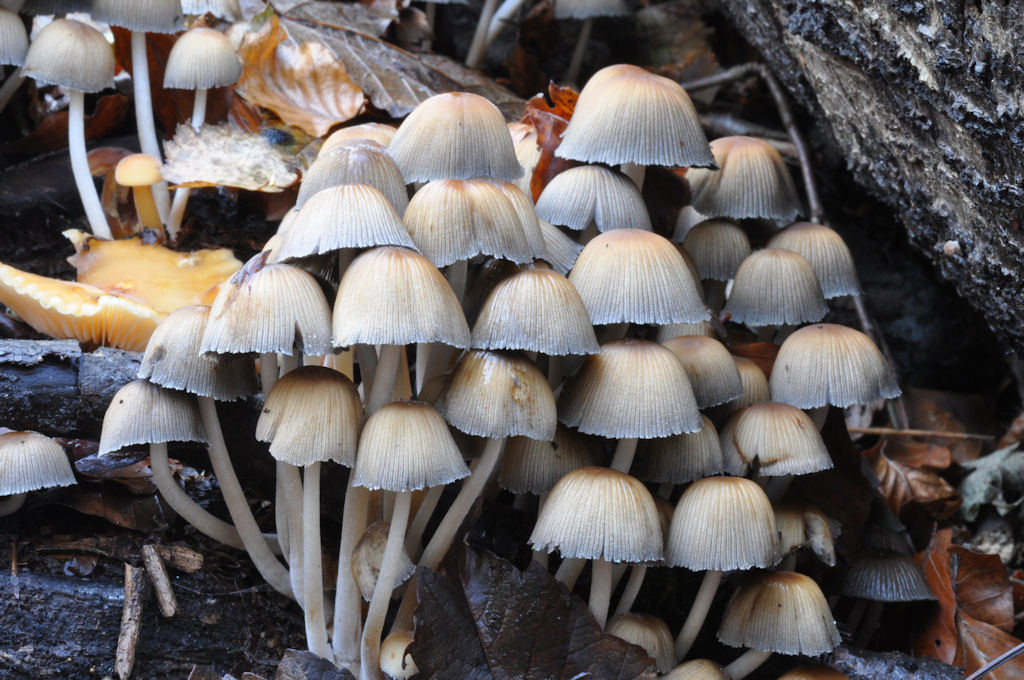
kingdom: Fungi
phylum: Basidiomycota
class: Agaricomycetes
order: Agaricales
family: Psathyrellaceae
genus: Coprinellus
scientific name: Coprinellus micaceus
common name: glimmer-blækhat
